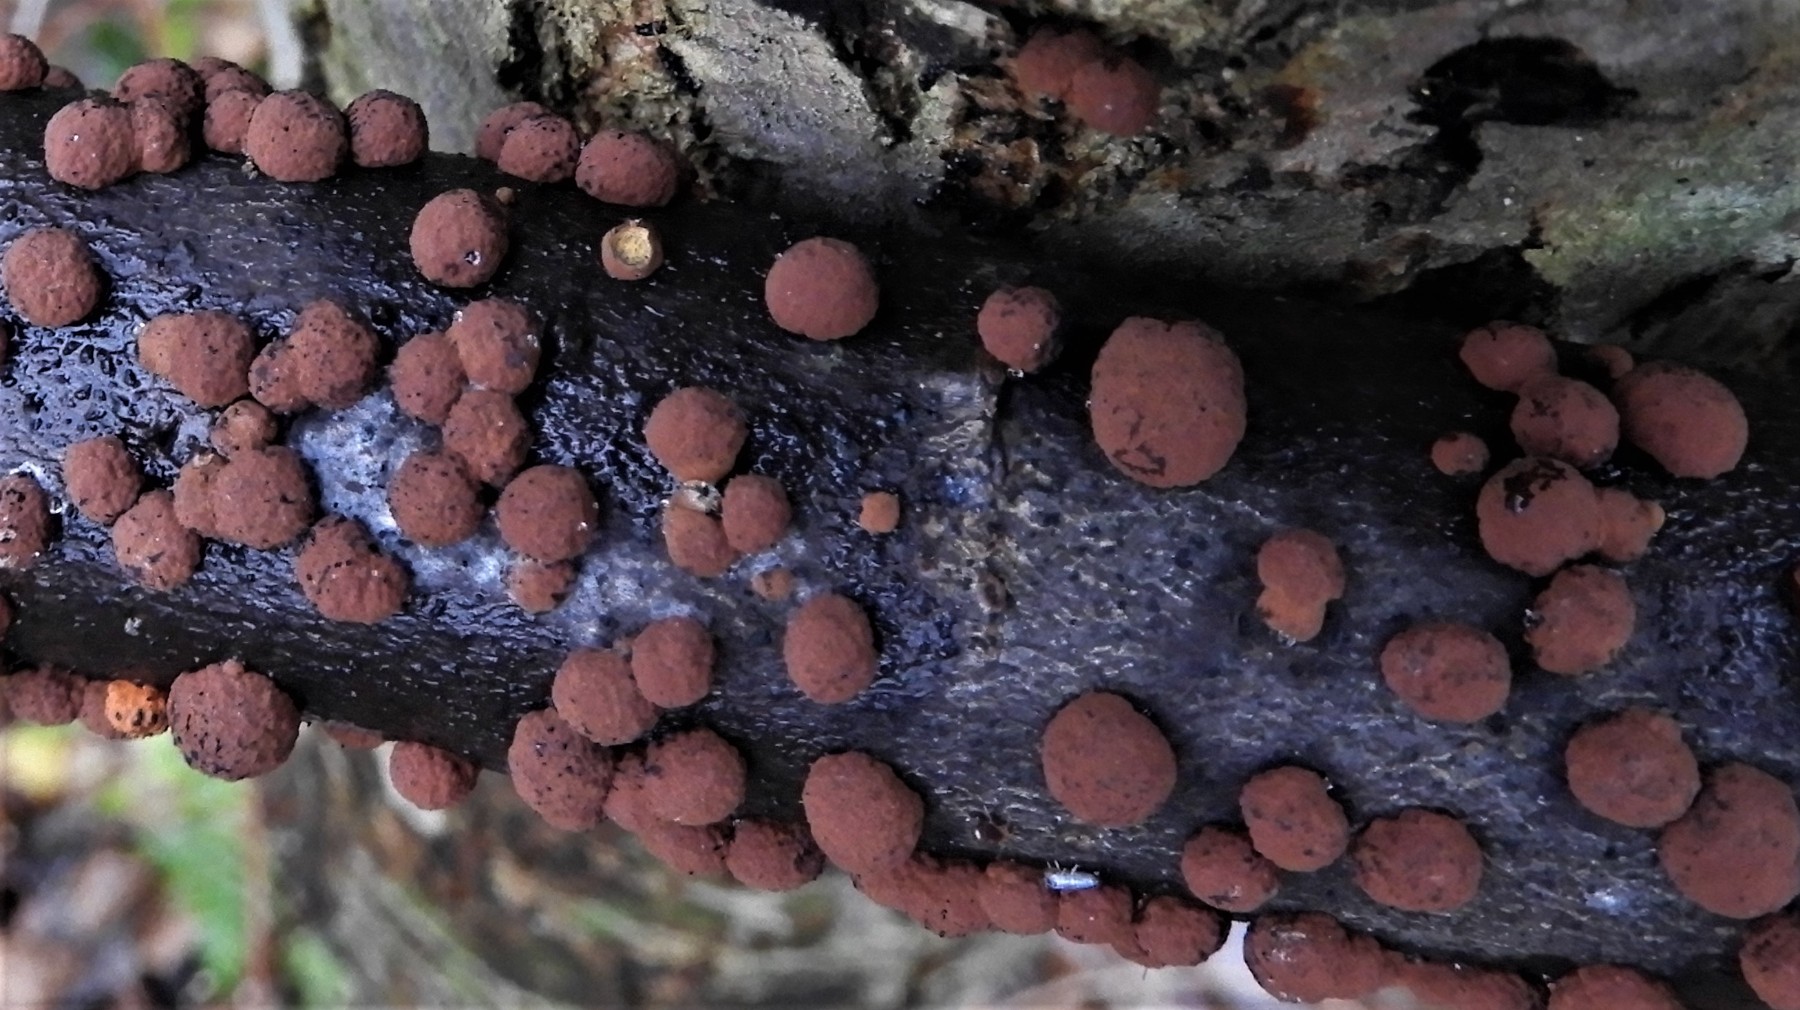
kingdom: Fungi
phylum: Ascomycota
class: Sordariomycetes
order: Xylariales
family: Hypoxylaceae
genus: Hypoxylon
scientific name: Hypoxylon fragiforme
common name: kuljordbær
